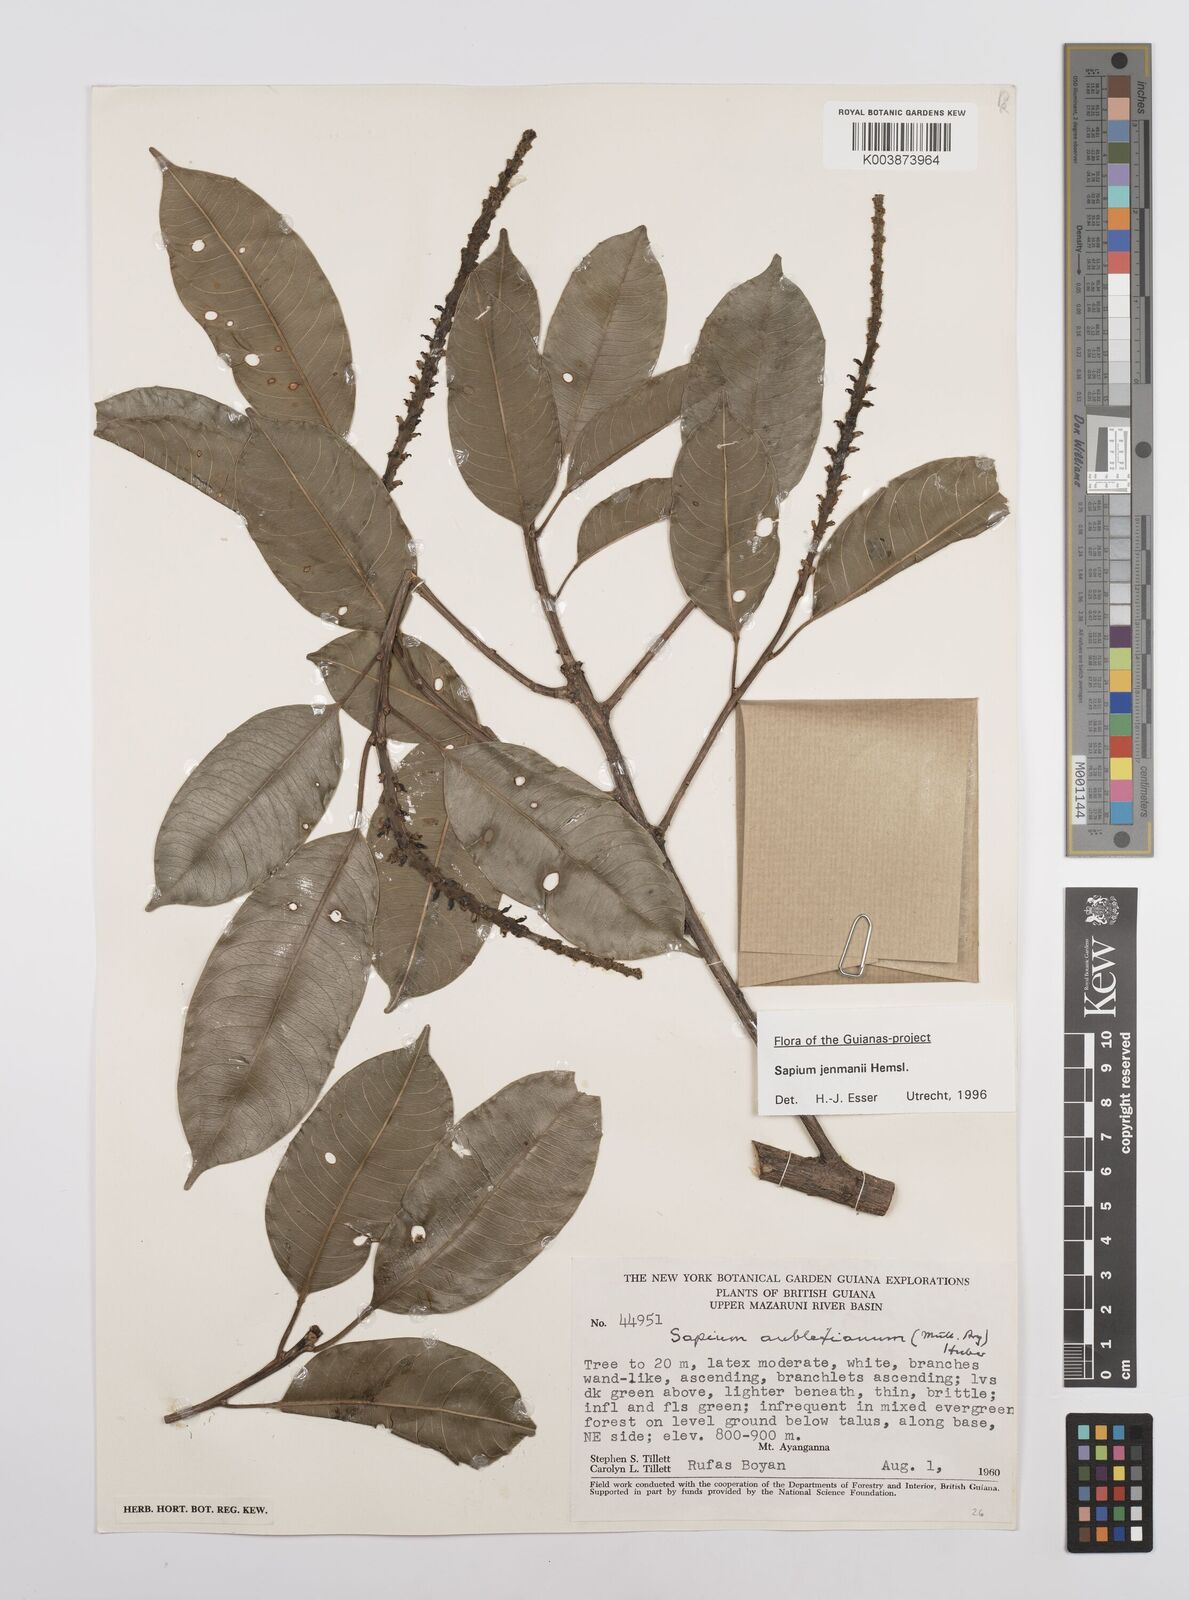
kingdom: Plantae
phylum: Tracheophyta
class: Magnoliopsida
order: Malpighiales
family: Euphorbiaceae
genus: Sapium
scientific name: Sapium jenmannii
